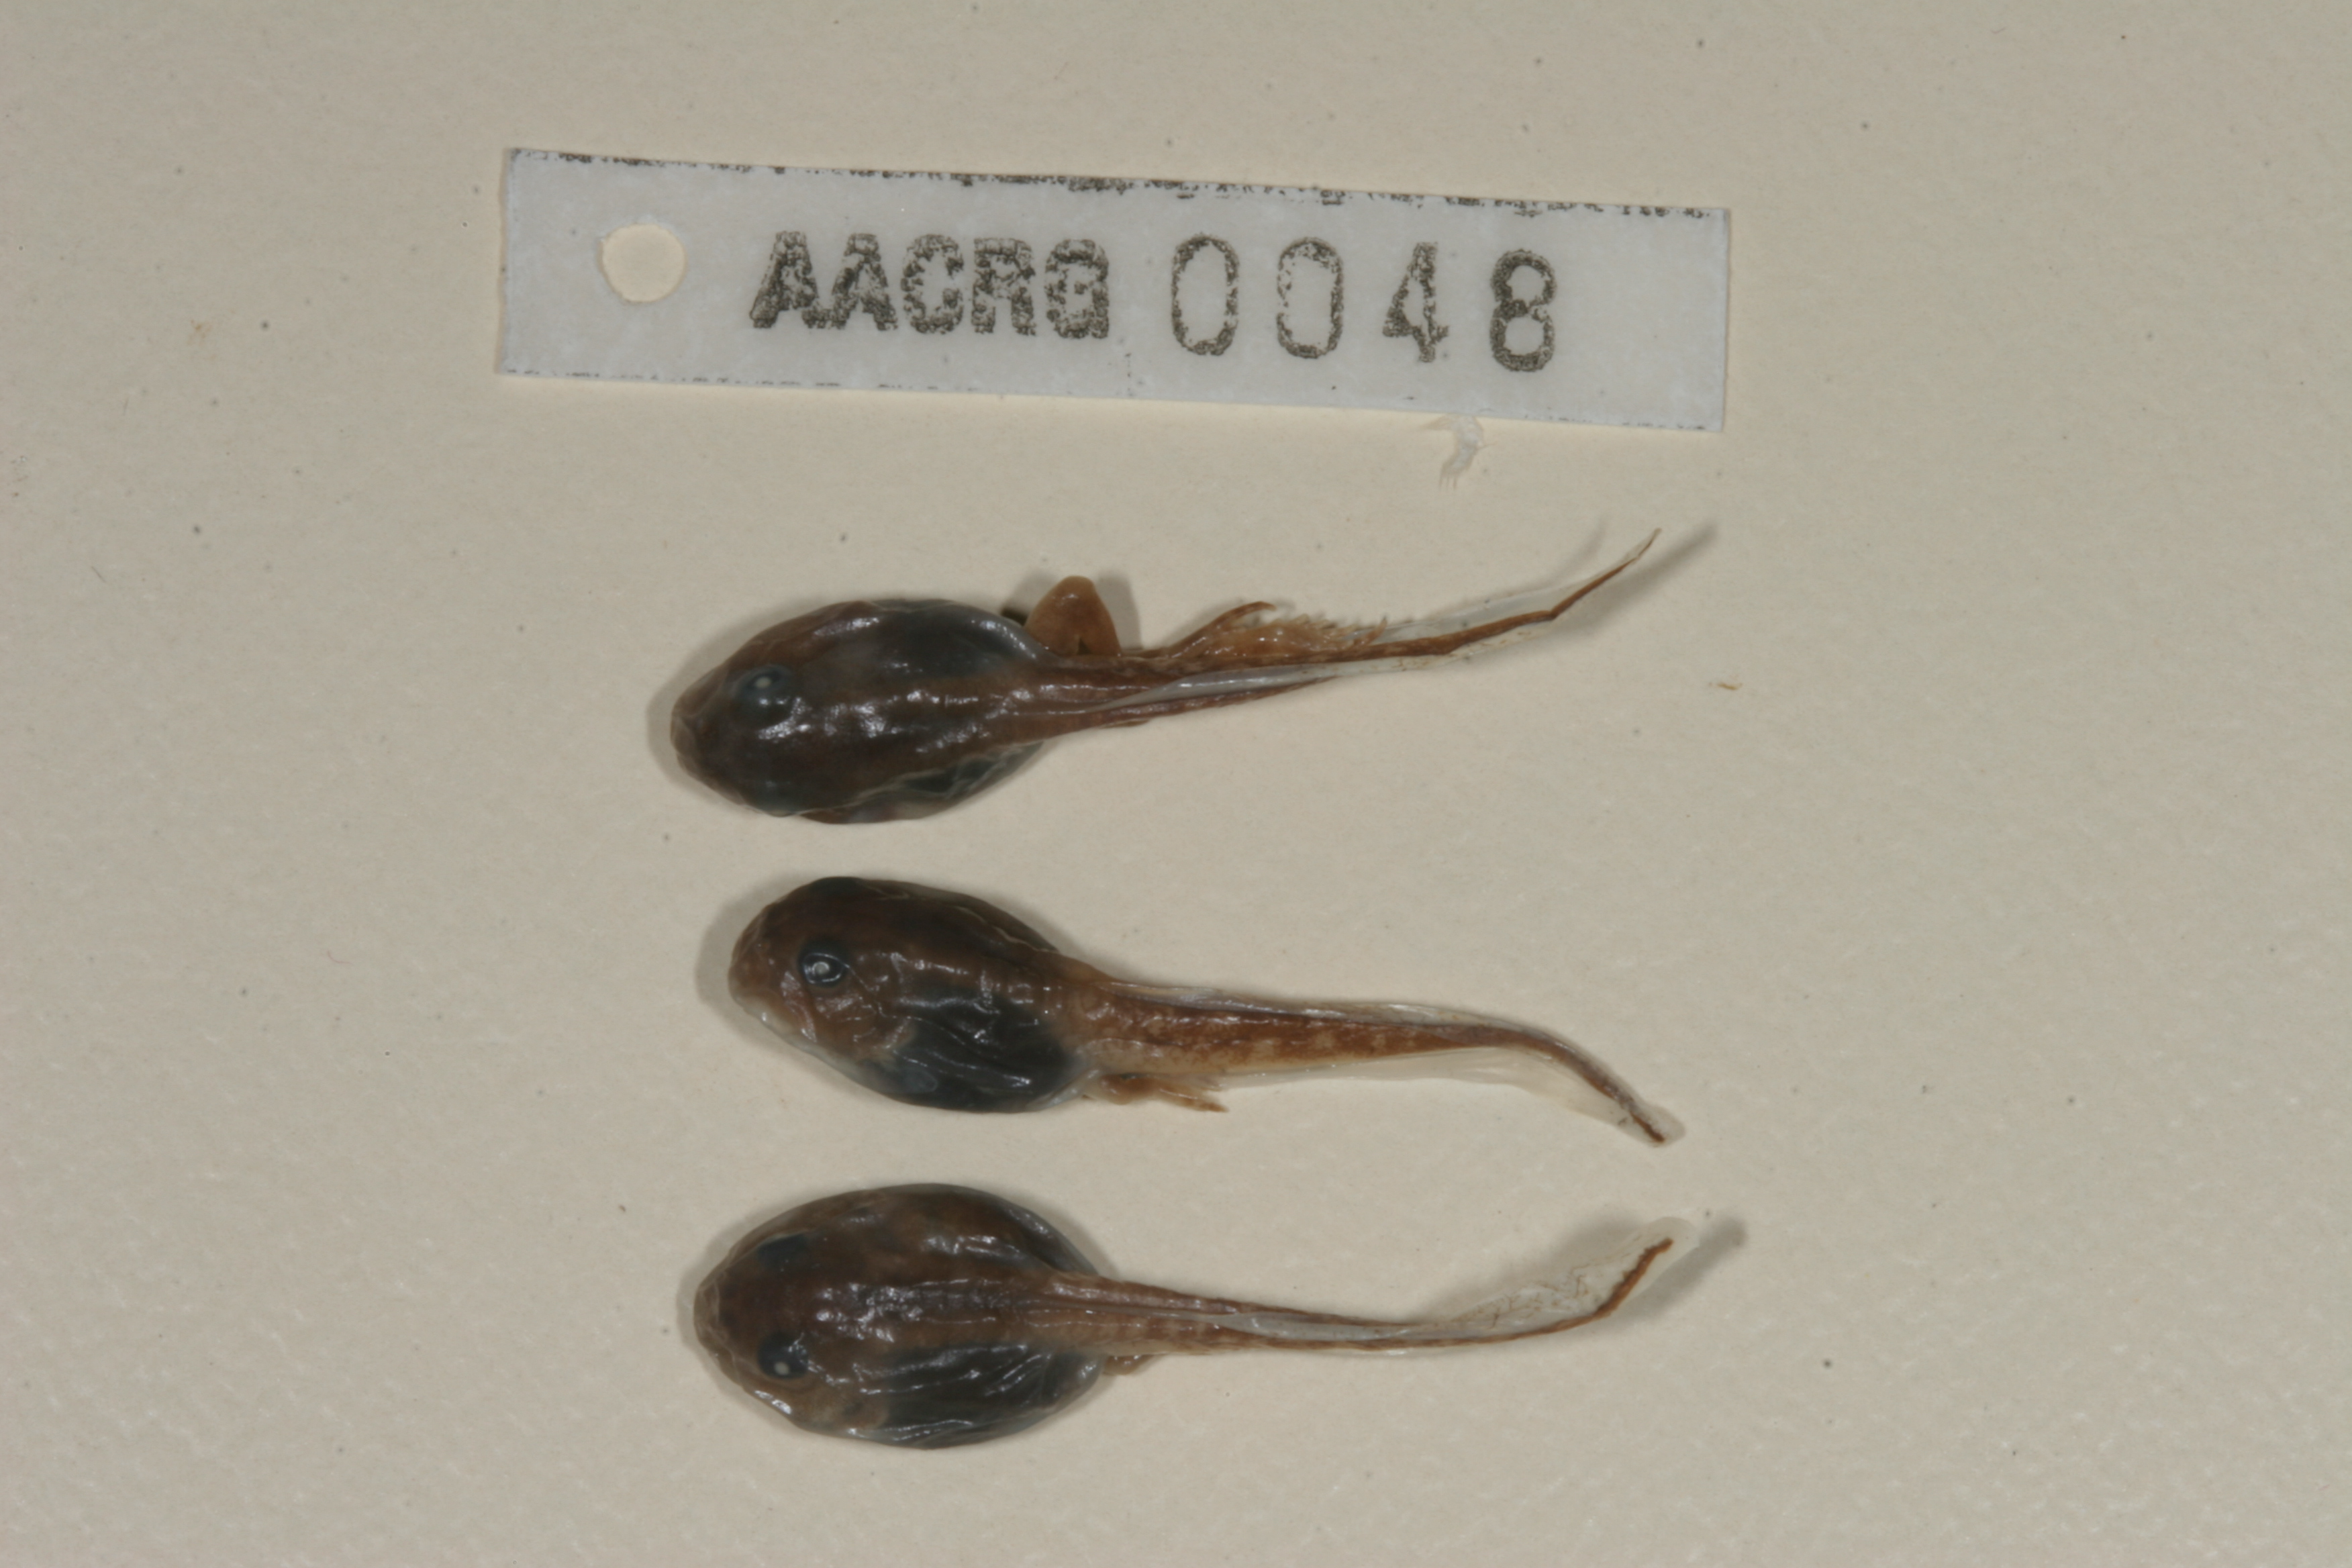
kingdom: Animalia
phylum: Chordata
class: Amphibia
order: Anura
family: Bufonidae
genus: Sclerophrys
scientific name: Sclerophrys gutturalis
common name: African common toad
